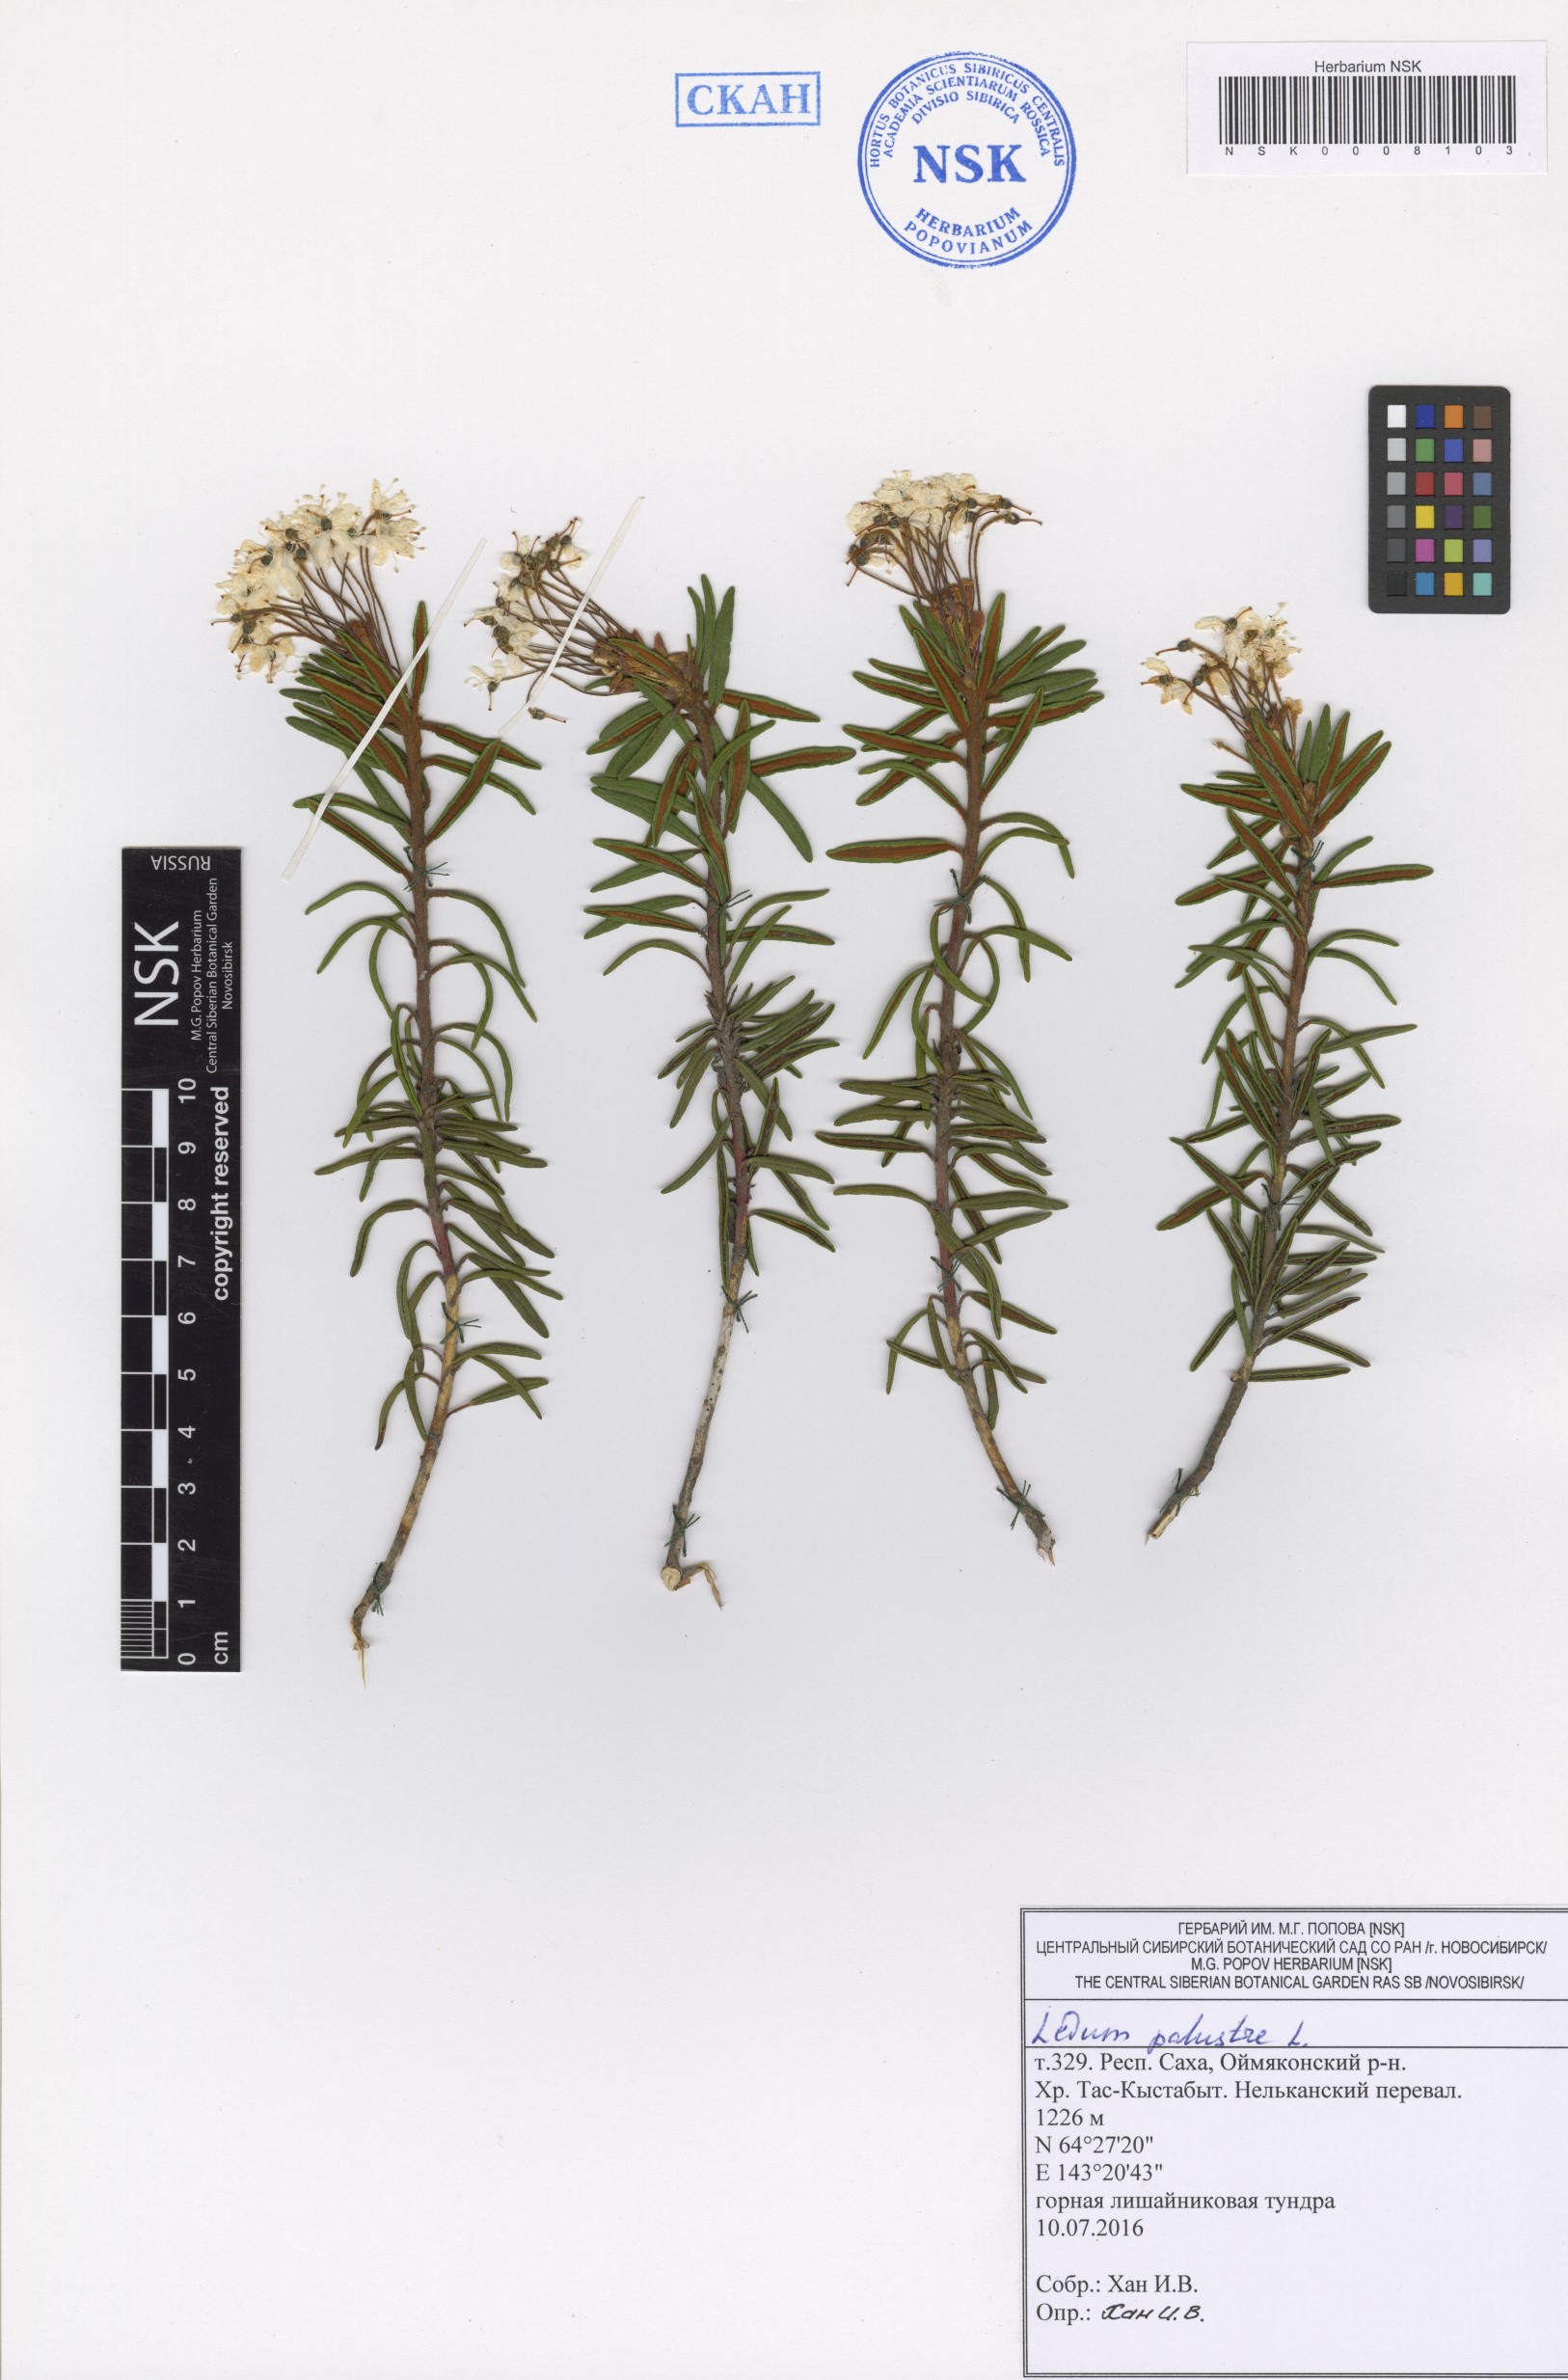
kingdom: Plantae
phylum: Tracheophyta
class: Magnoliopsida
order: Ericales
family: Ericaceae
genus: Rhododendron
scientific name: Rhododendron tomentosum
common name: Marsh labrador tea
